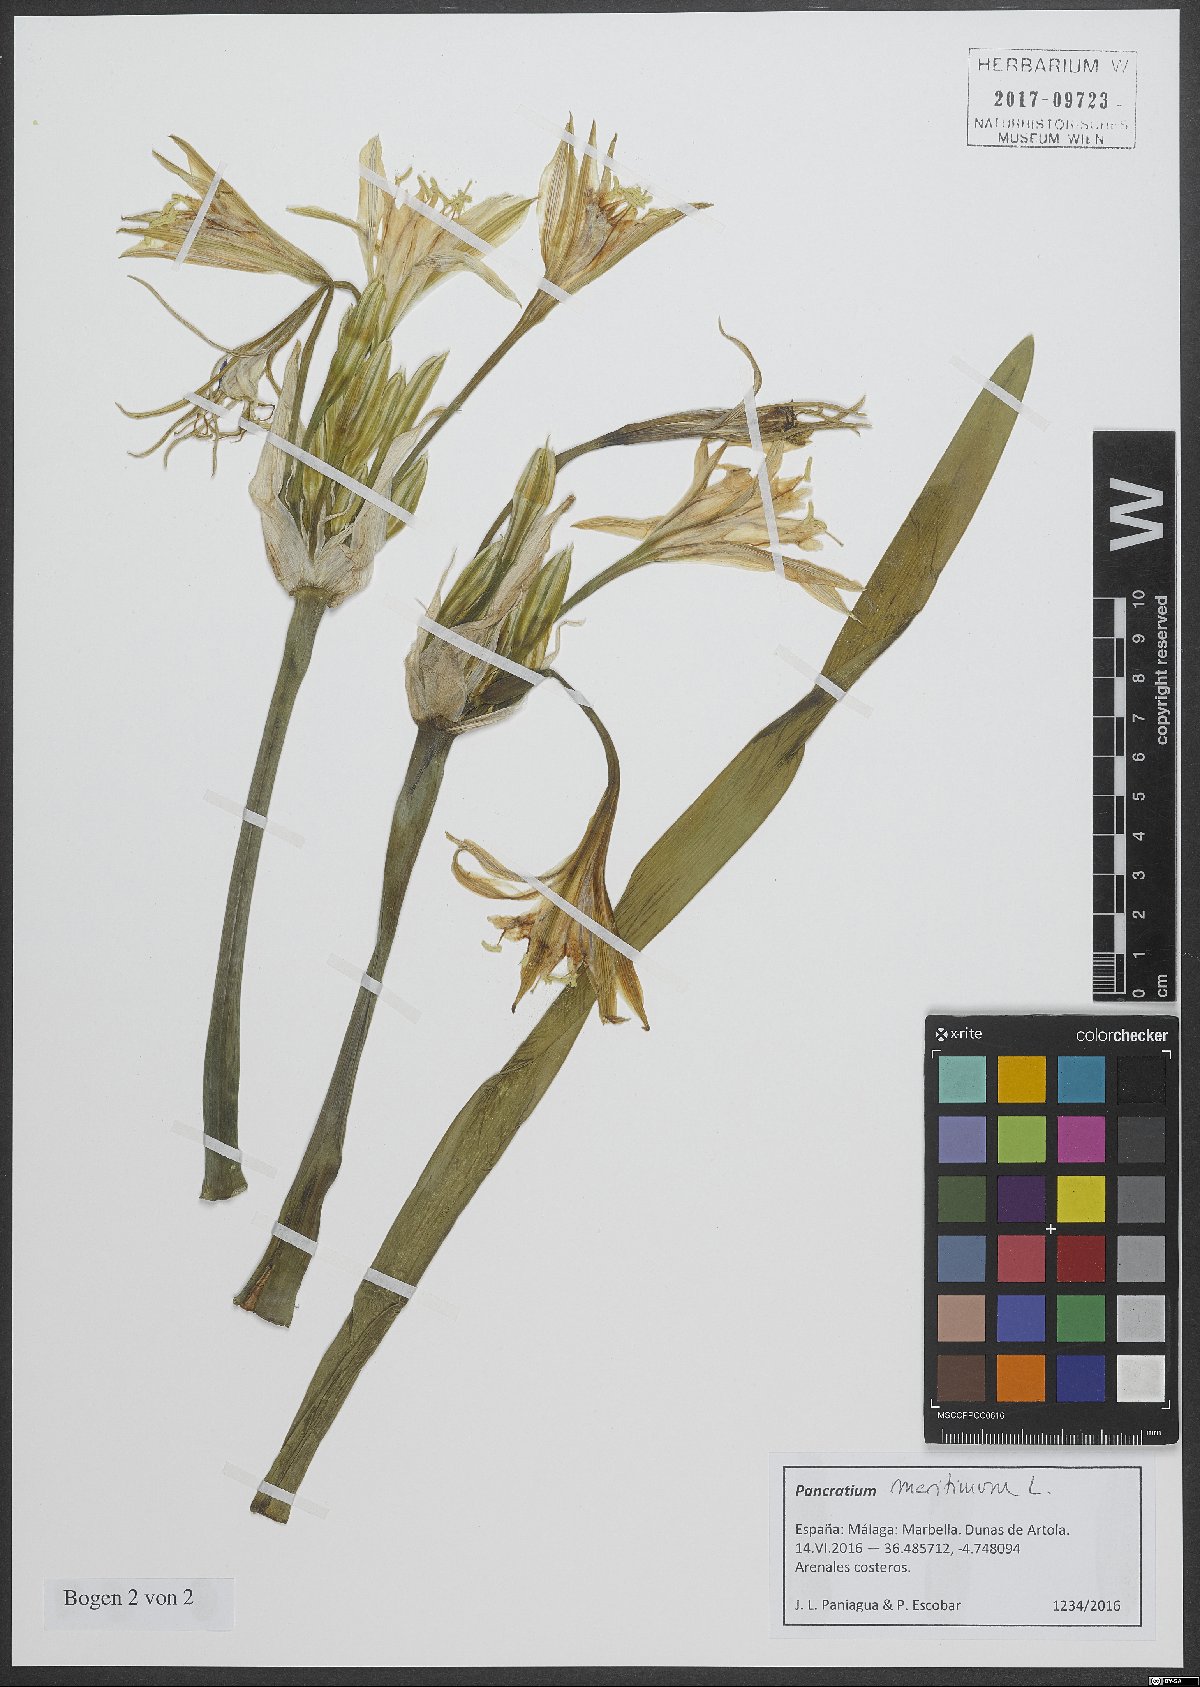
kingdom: Plantae
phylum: Tracheophyta
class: Liliopsida
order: Asparagales
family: Amaryllidaceae
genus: Pancratium
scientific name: Pancratium maritimum
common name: Sea-daffodil
